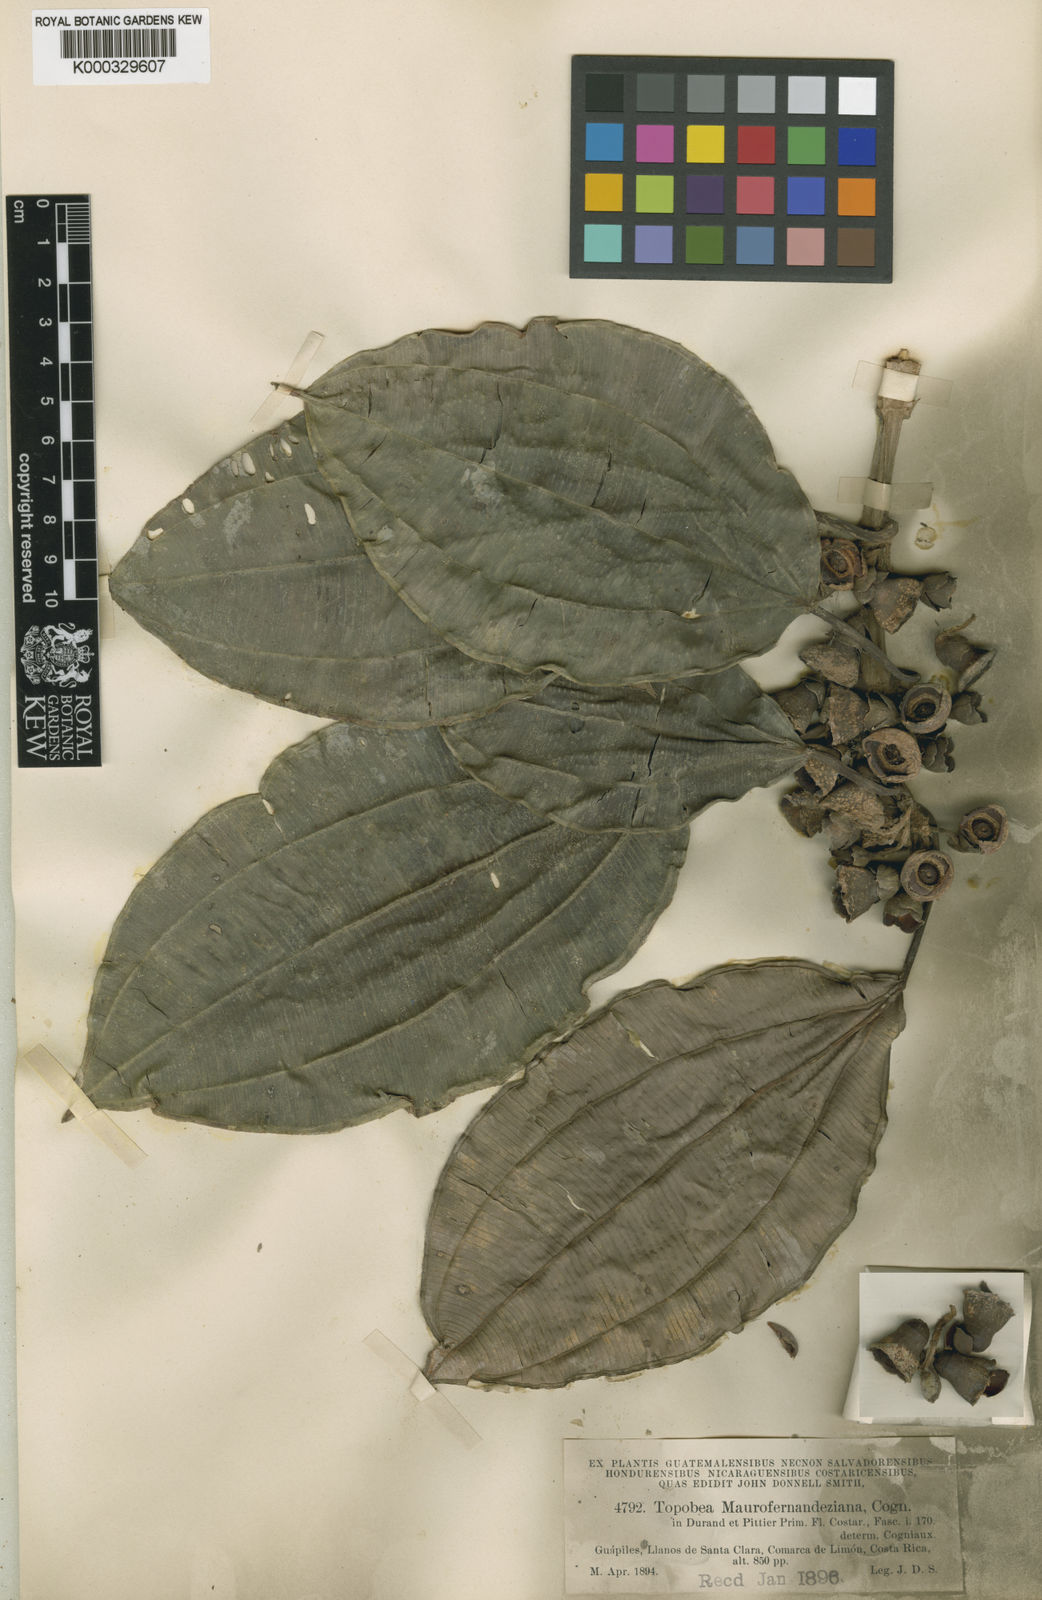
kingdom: Plantae
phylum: Tracheophyta
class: Magnoliopsida
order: Myrtales
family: Melastomataceae
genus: Blakea
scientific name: Blakea maurofernandeziana
